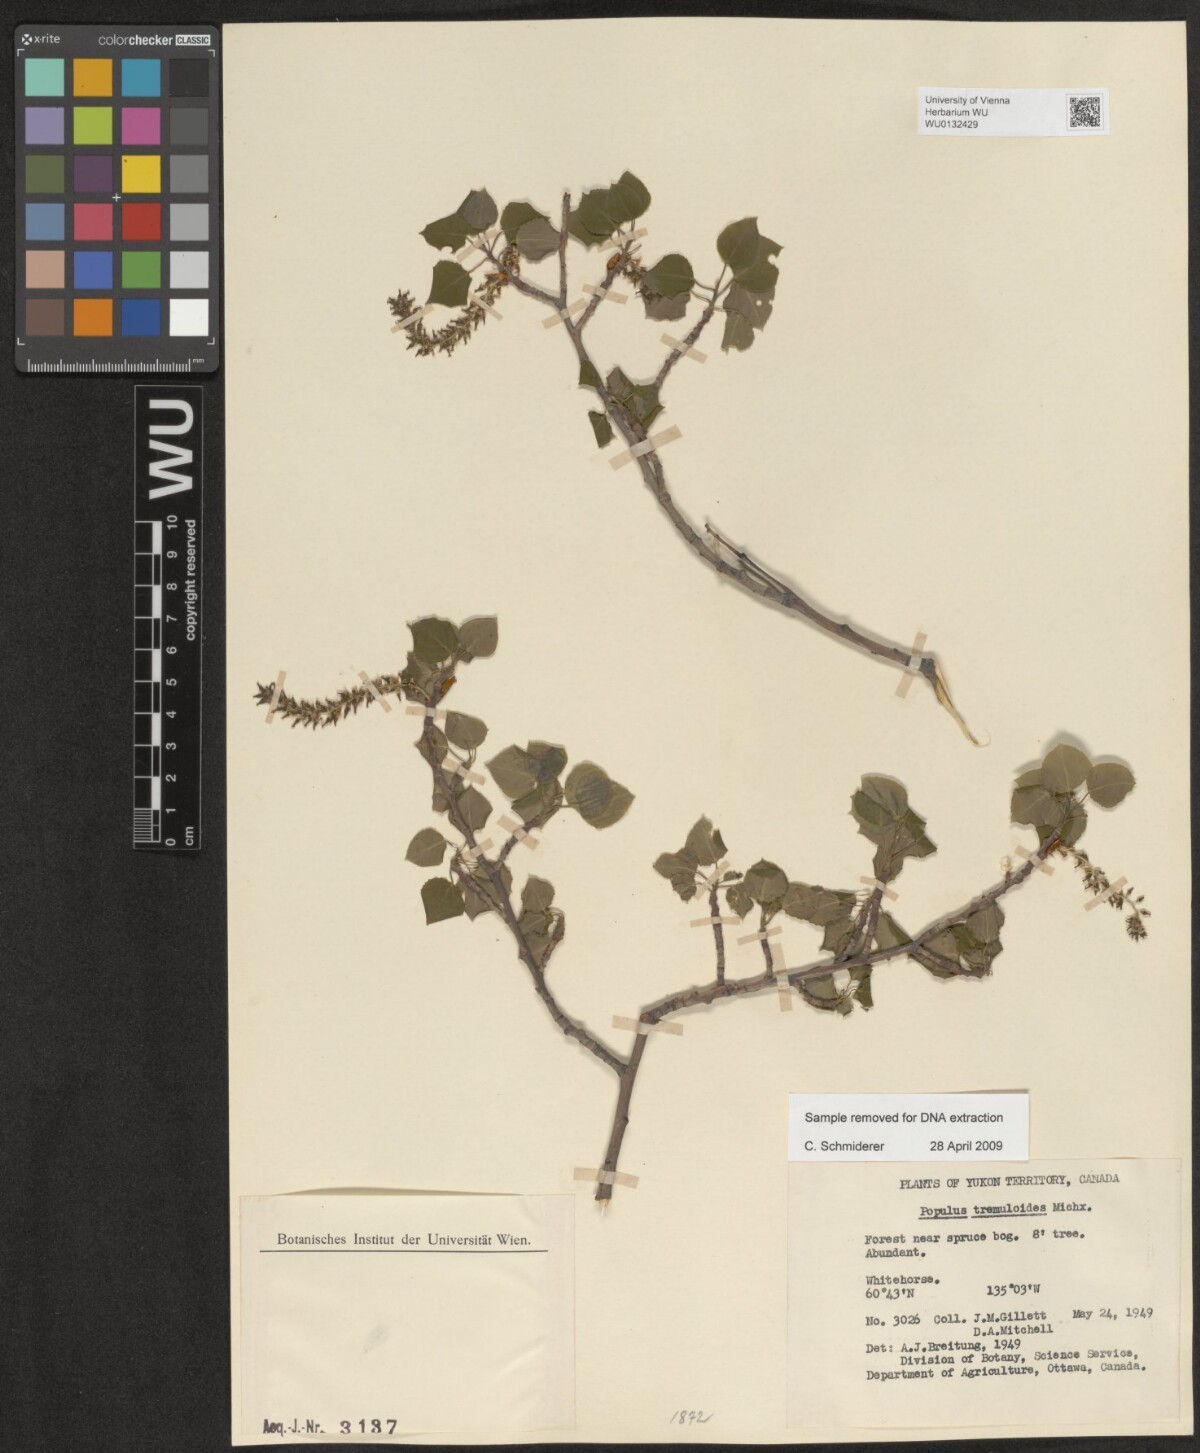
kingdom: Plantae
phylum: Tracheophyta
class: Magnoliopsida
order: Malpighiales
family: Salicaceae
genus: Populus
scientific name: Populus tremuloides
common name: Quaking aspen
